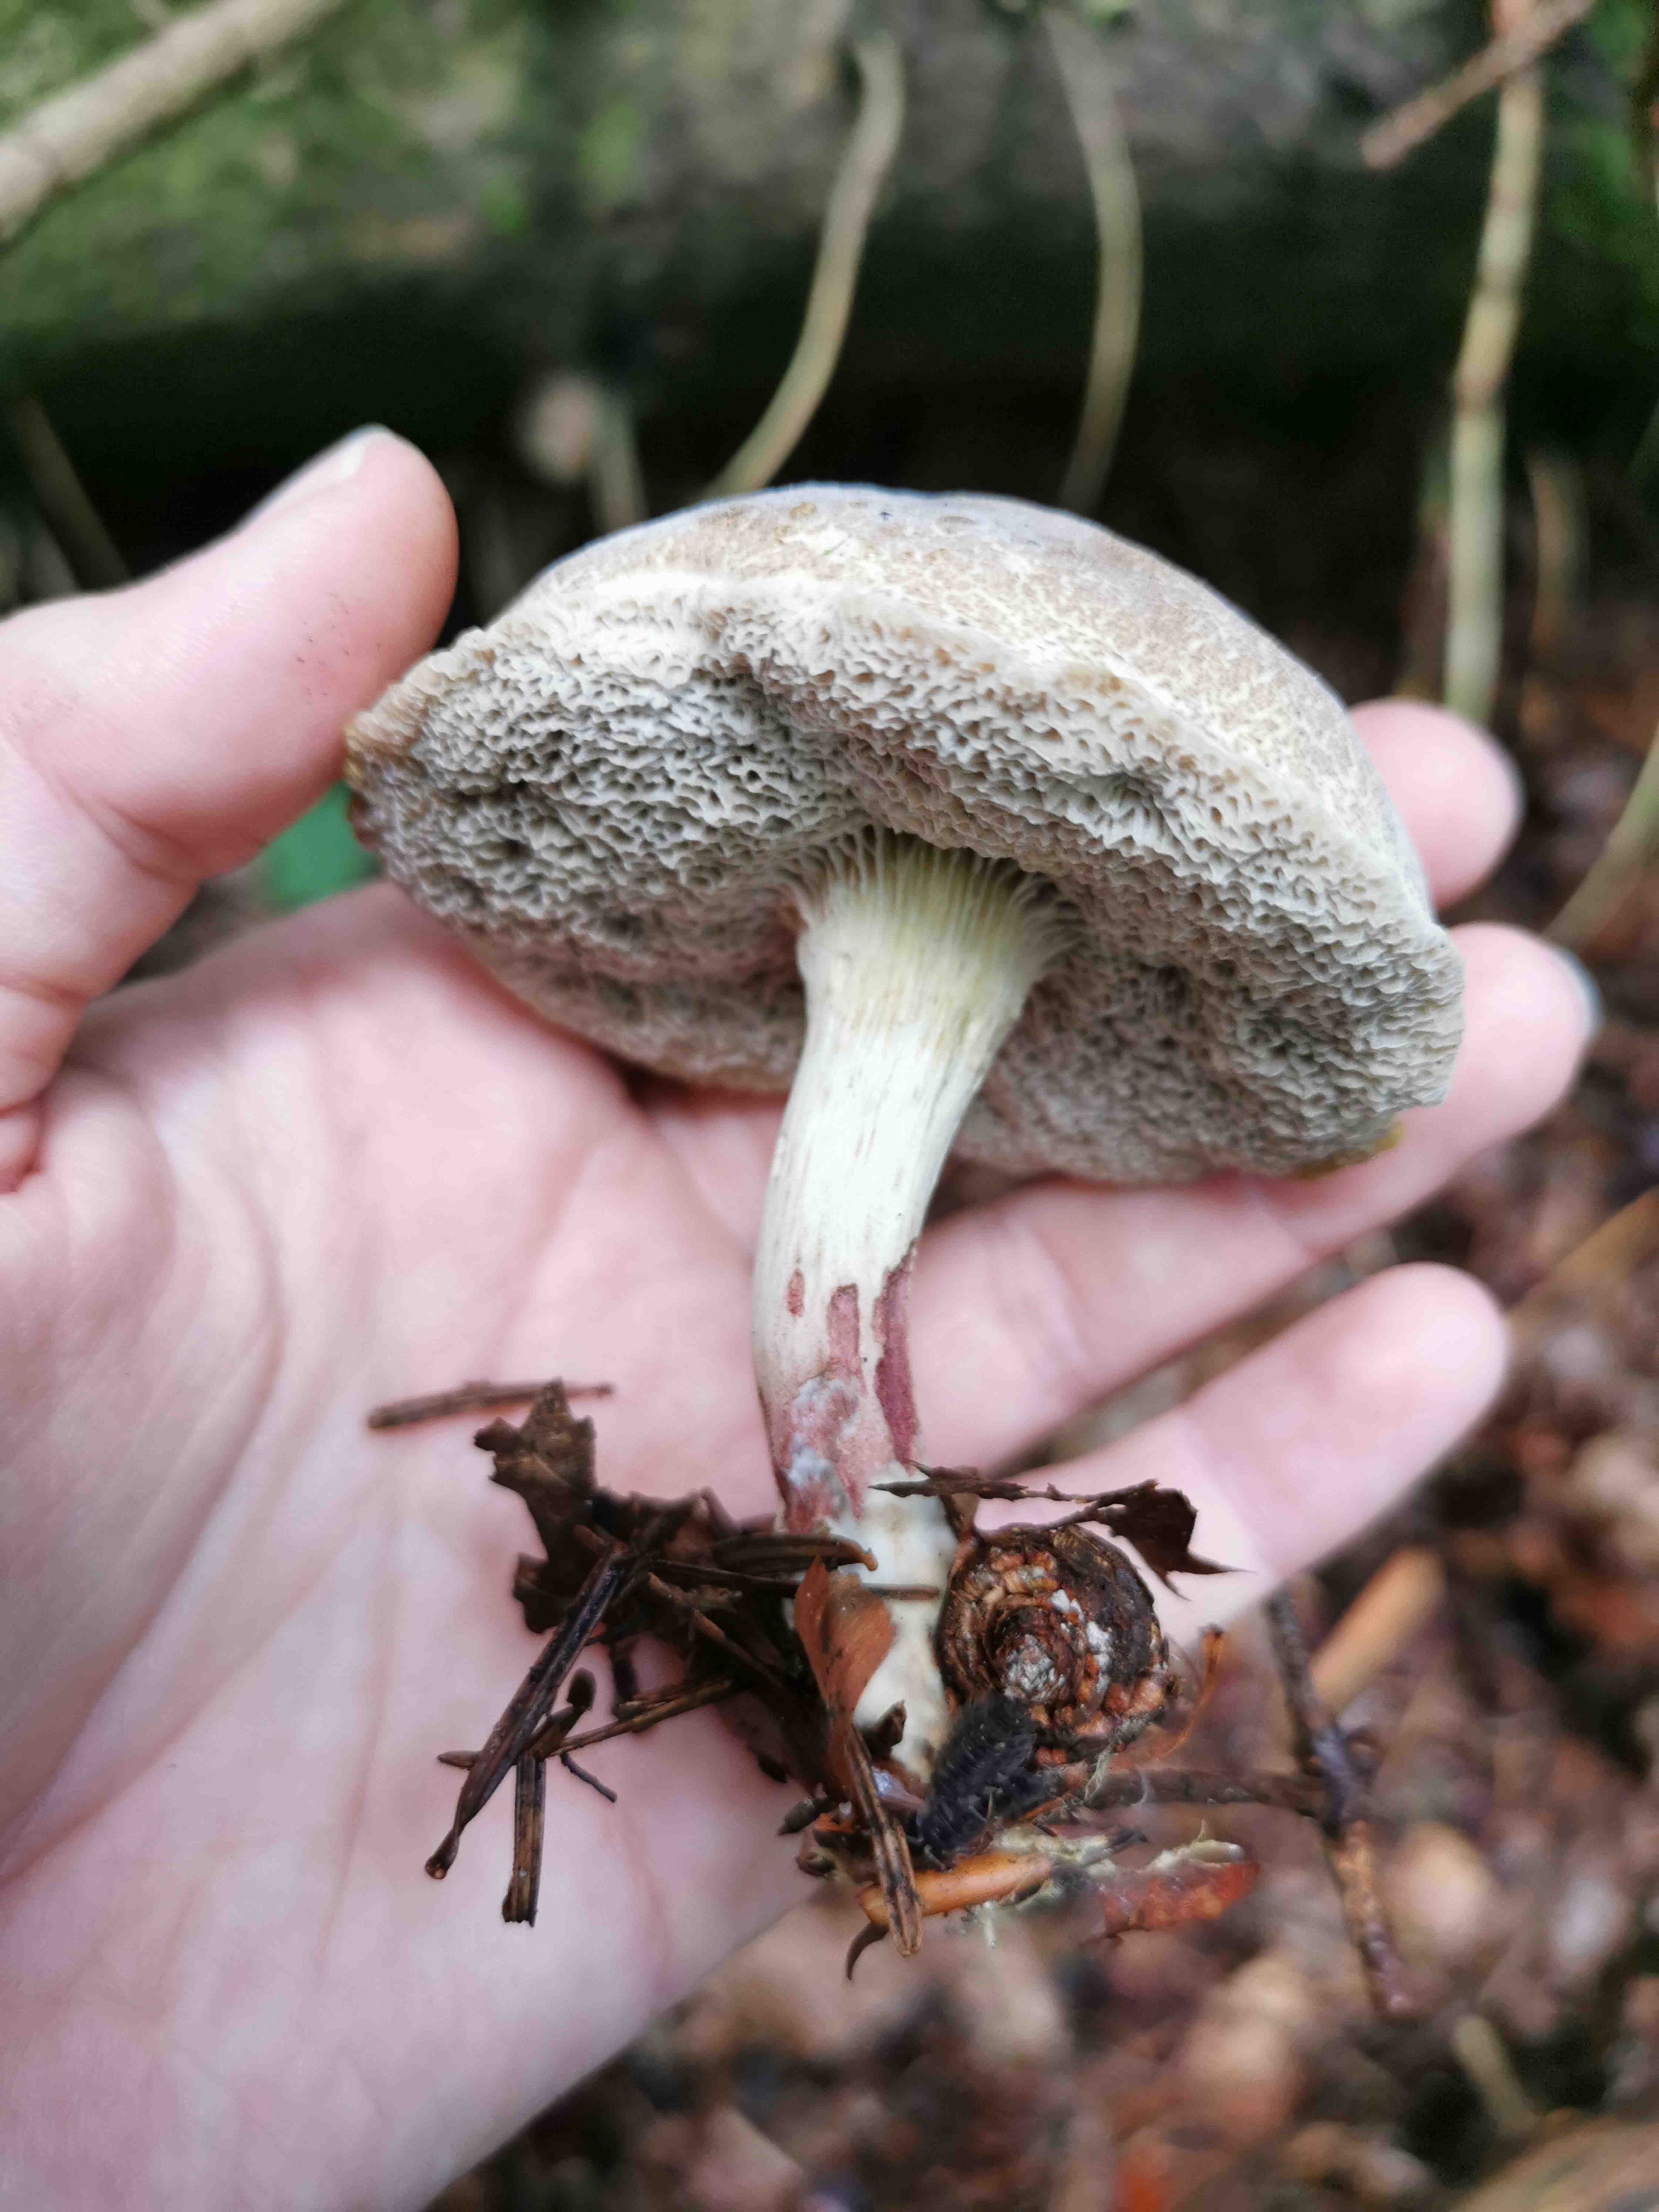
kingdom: Fungi
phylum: Ascomycota
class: Sordariomycetes
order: Hypocreales
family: Hypocreaceae
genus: Hypomyces
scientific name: Hypomyces microspermus
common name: dværgrørhat-snylteskorpe
